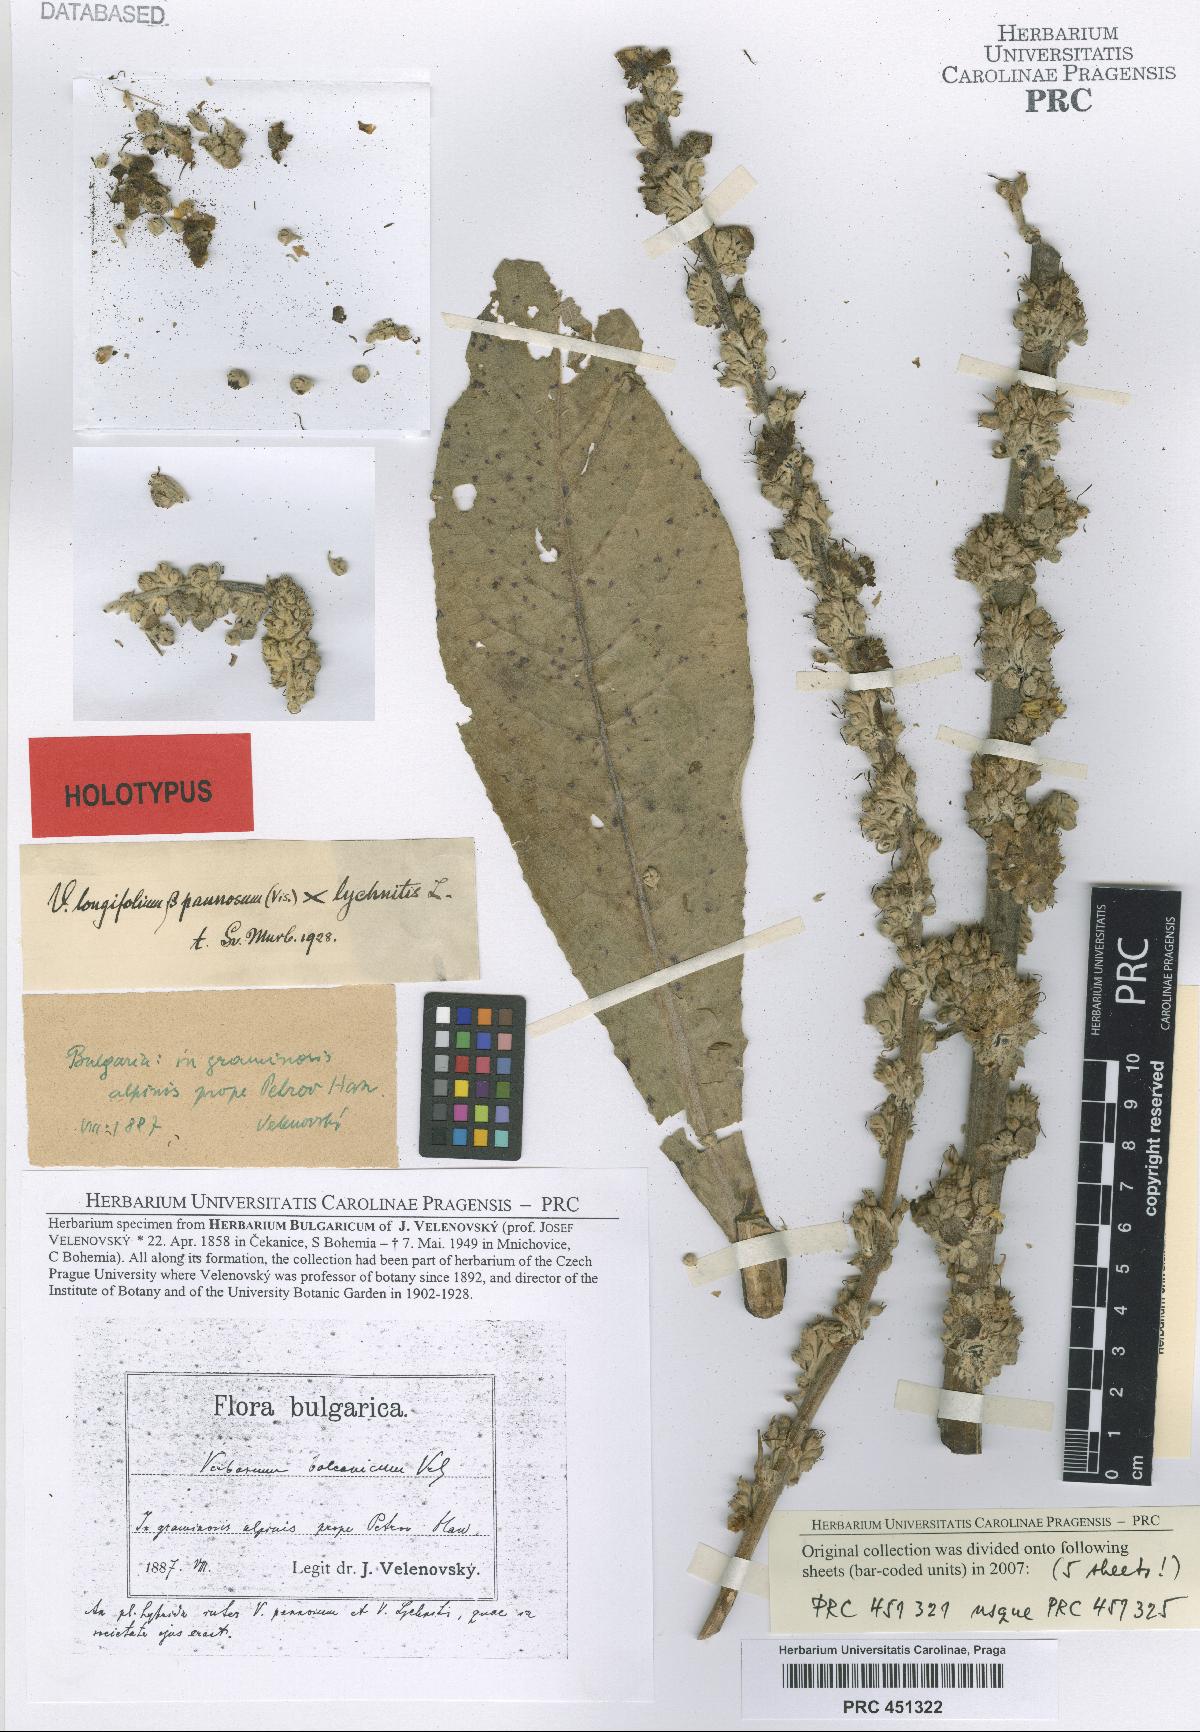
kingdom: Plantae
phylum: Tracheophyta
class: Magnoliopsida
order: Lamiales
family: Scrophulariaceae
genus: Verbascum
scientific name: Verbascum balcanicum
